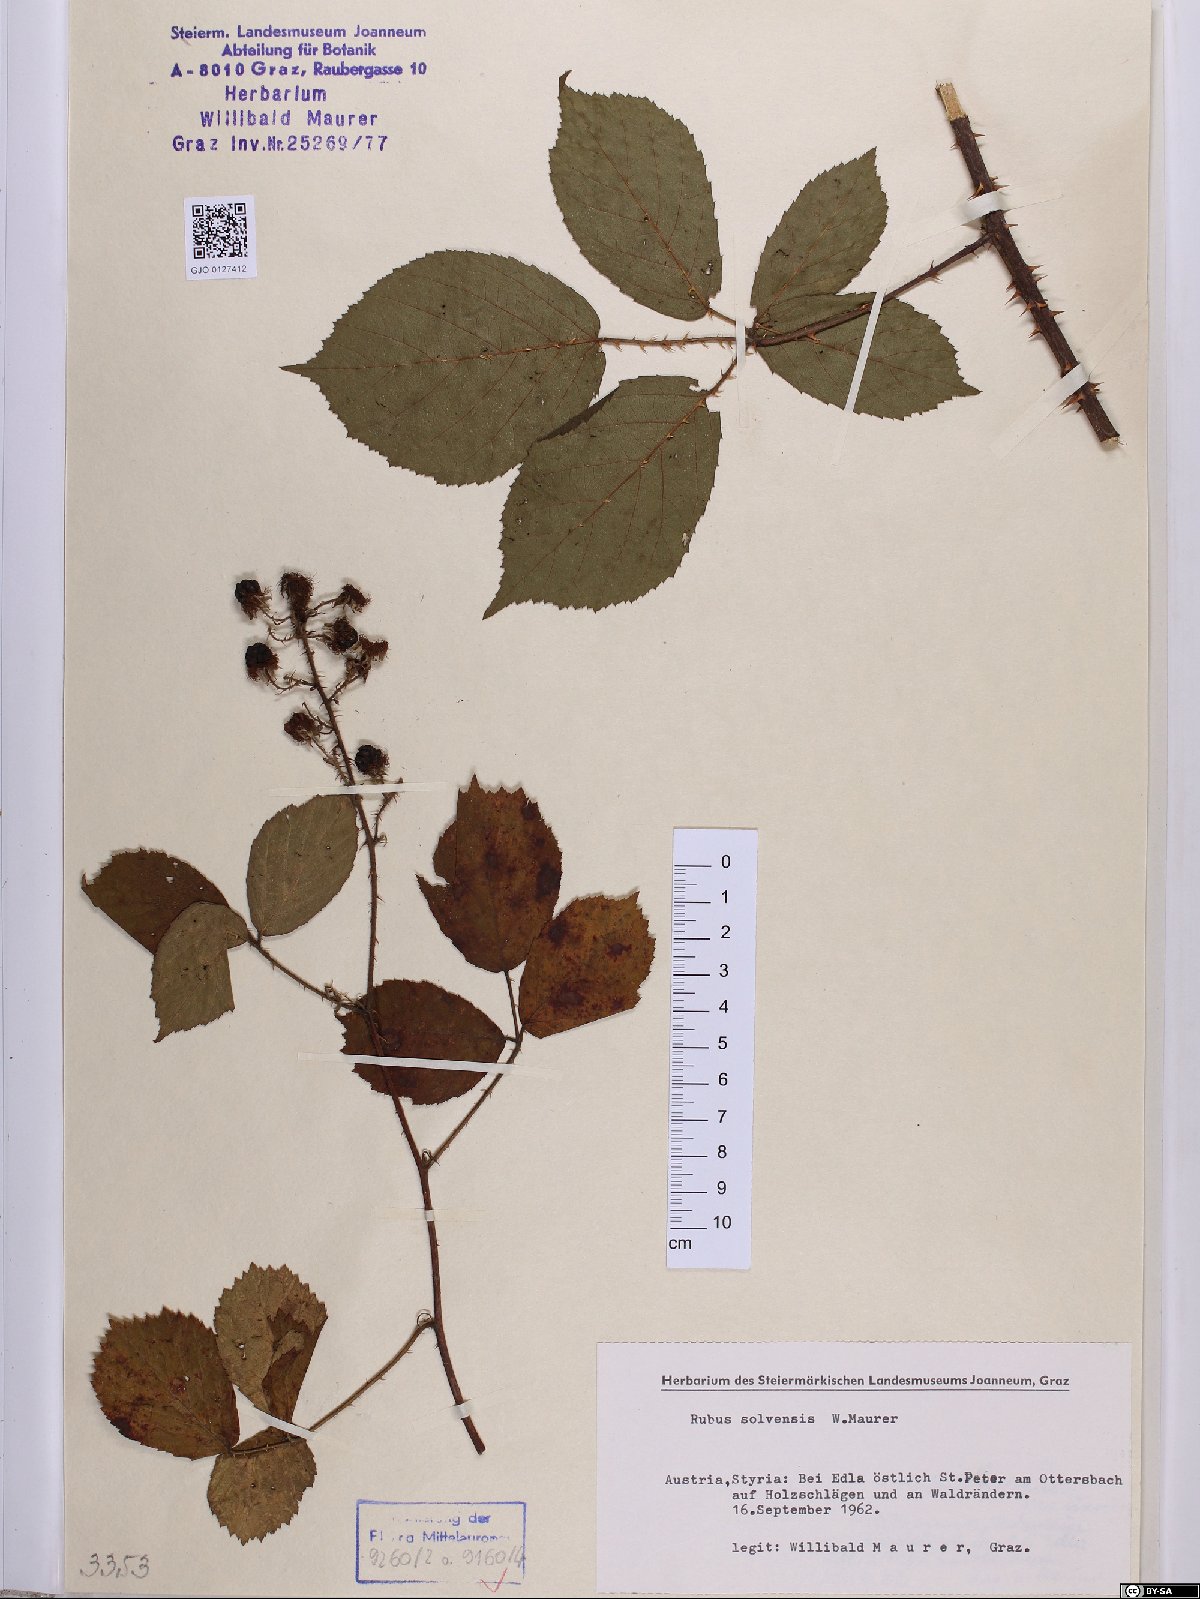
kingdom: Plantae
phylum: Tracheophyta
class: Magnoliopsida
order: Rosales
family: Rosaceae
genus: Rubus
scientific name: Rubus solvensis
